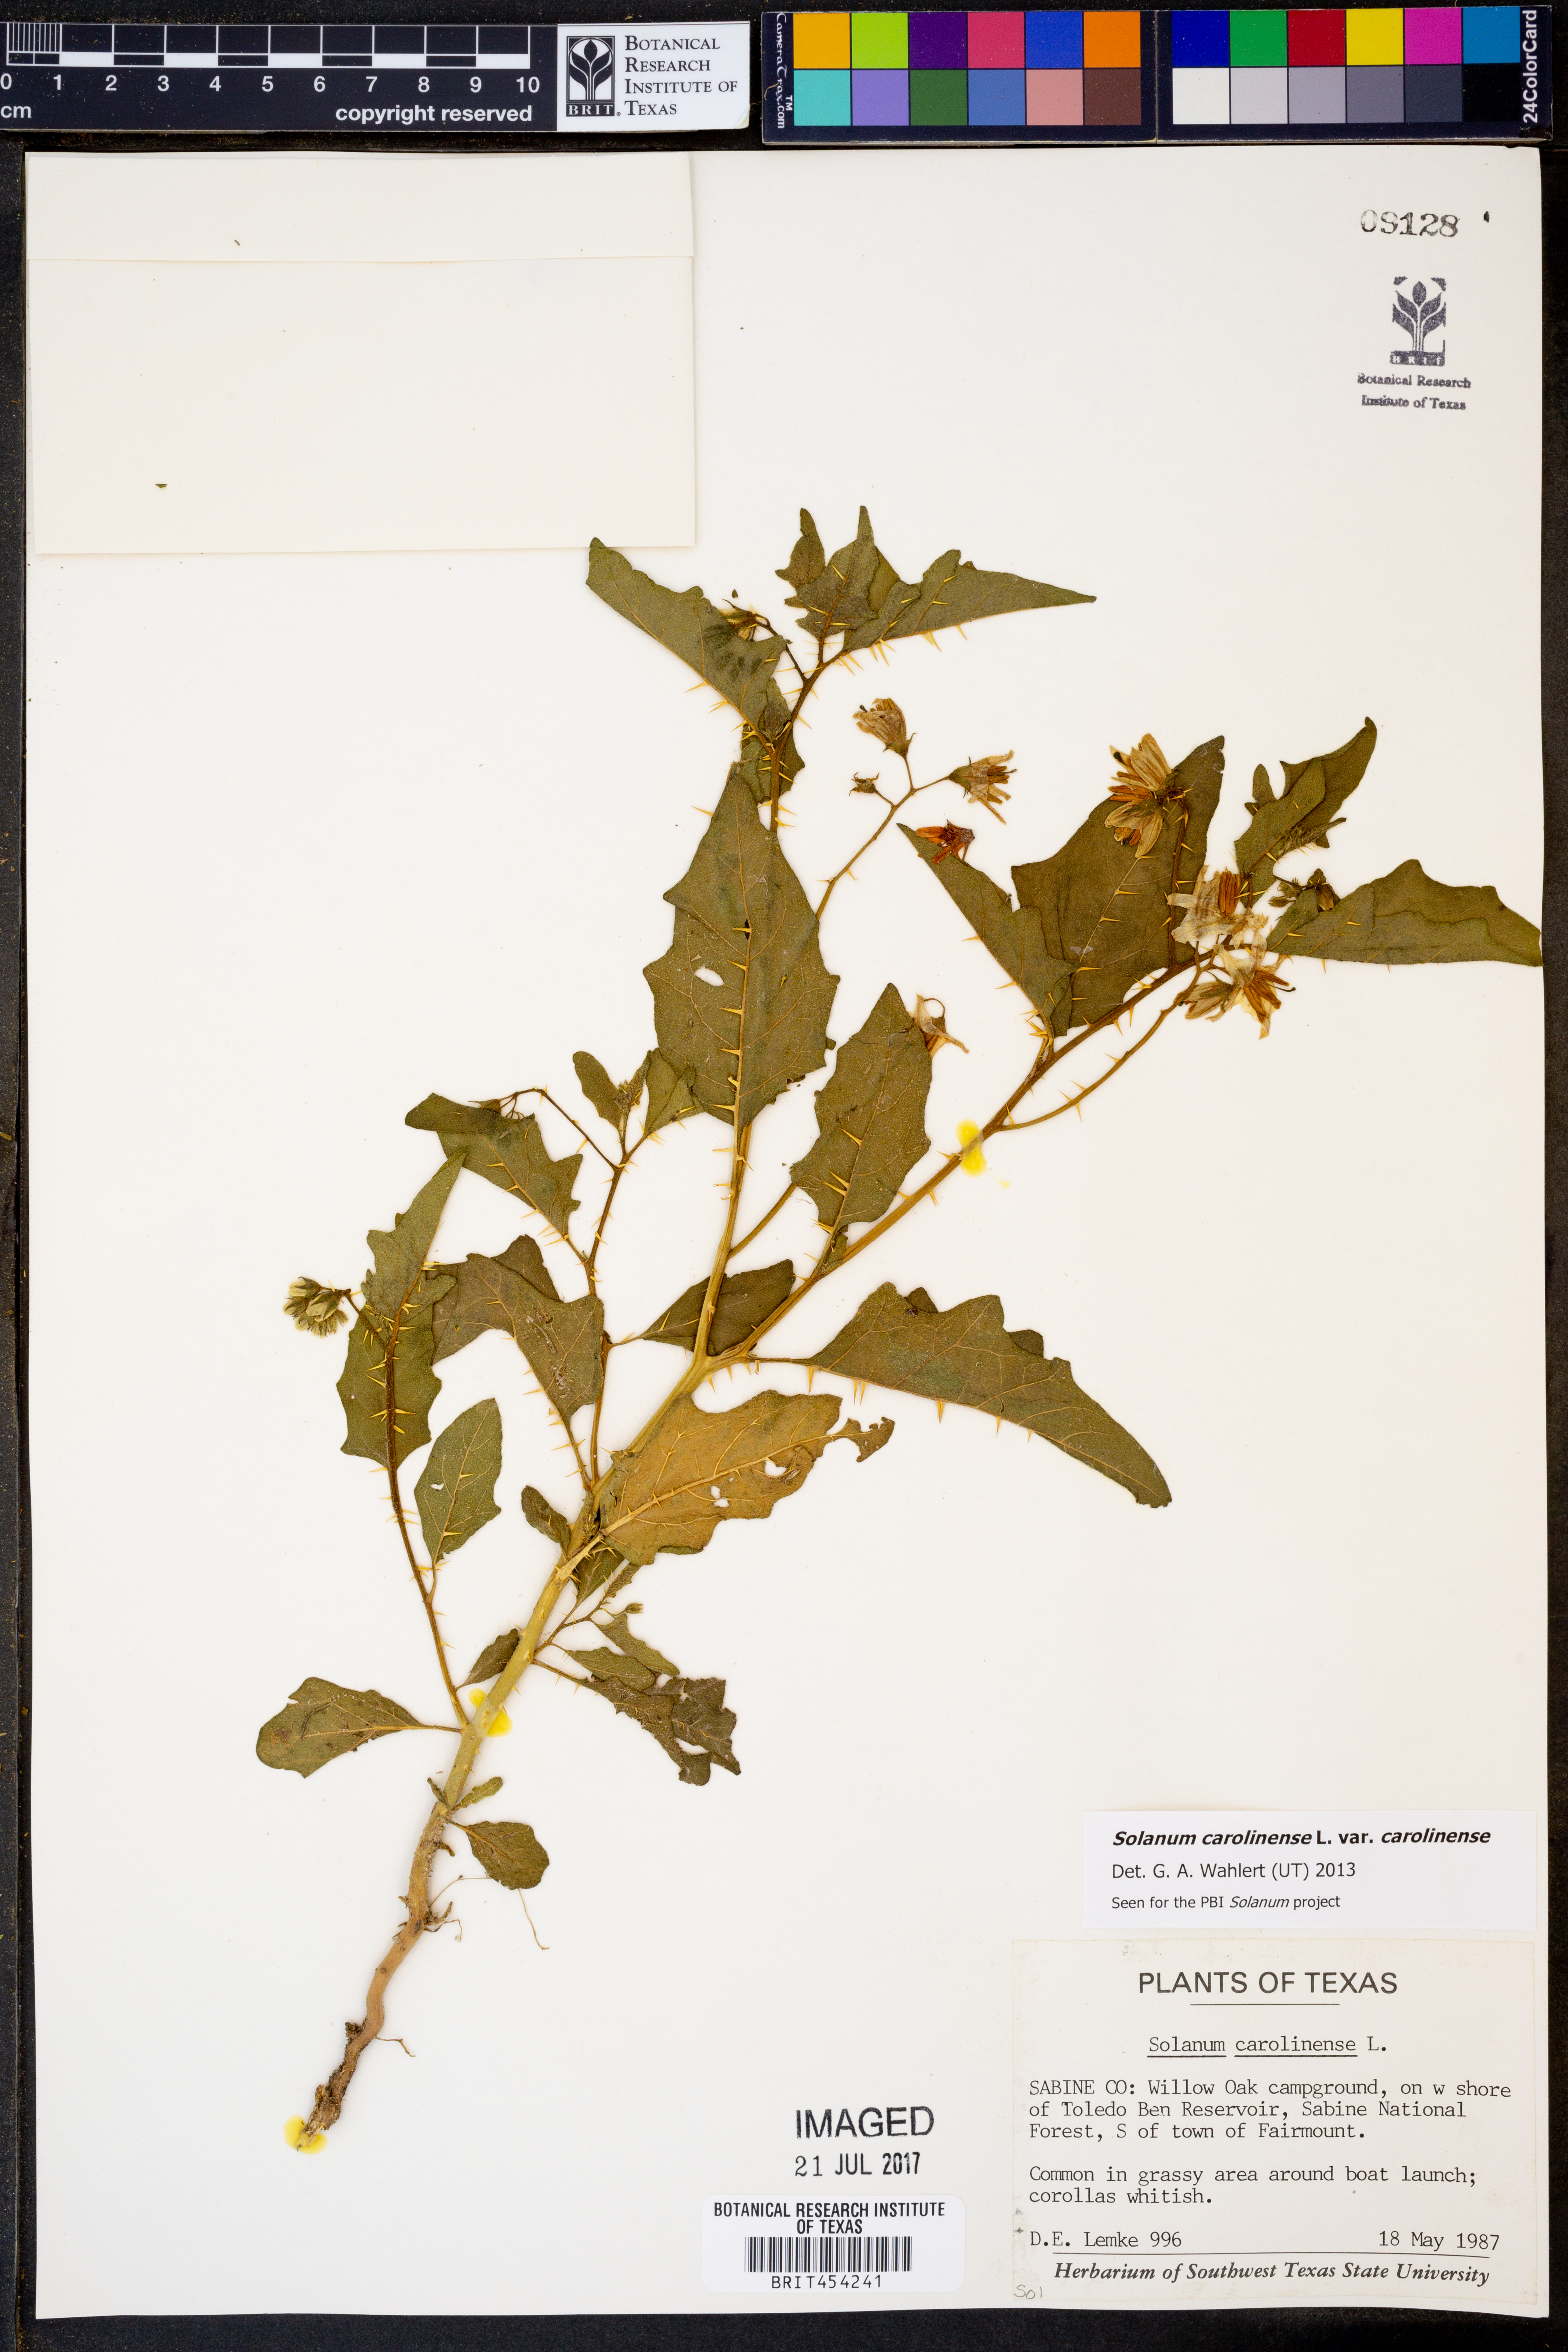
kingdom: Plantae
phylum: Tracheophyta
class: Magnoliopsida
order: Solanales
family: Solanaceae
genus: Solanum
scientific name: Solanum carolinense
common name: Horse-nettle
